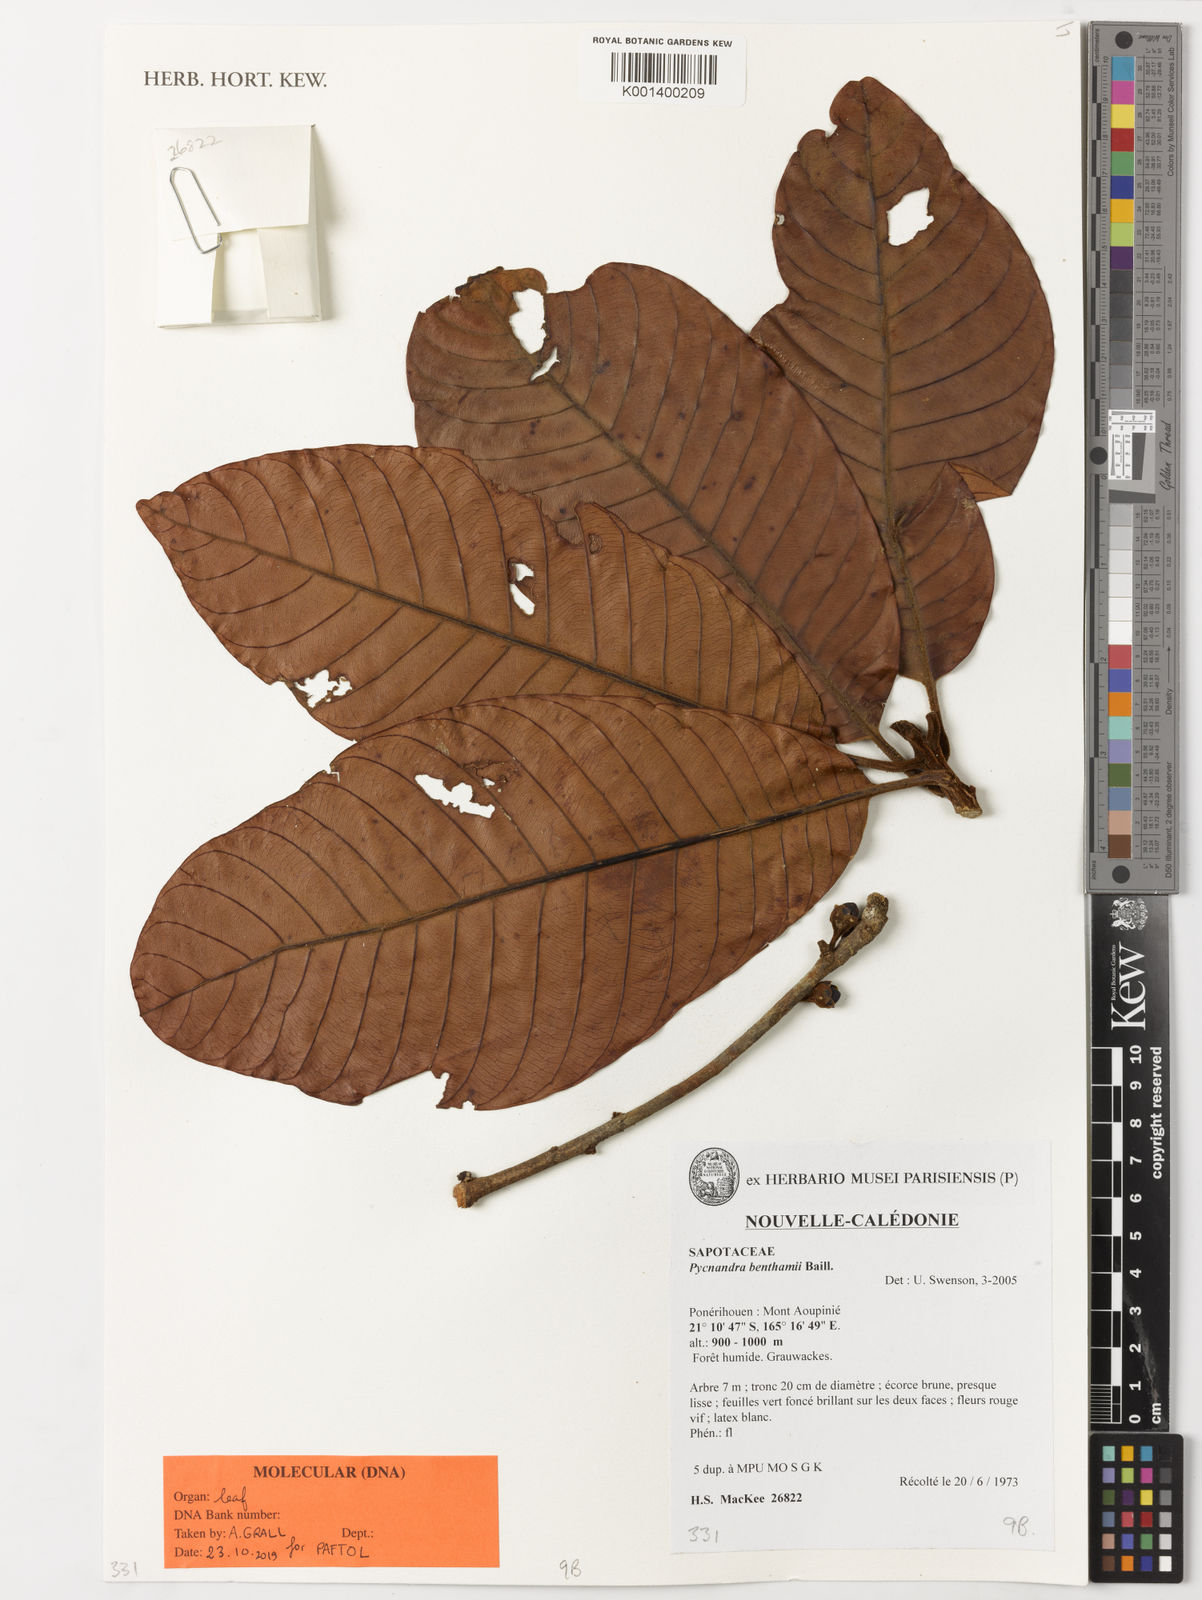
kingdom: Plantae
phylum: Tracheophyta
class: Magnoliopsida
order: Ericales
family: Sapotaceae
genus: Pycnandra
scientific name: Pycnandra benthamii
